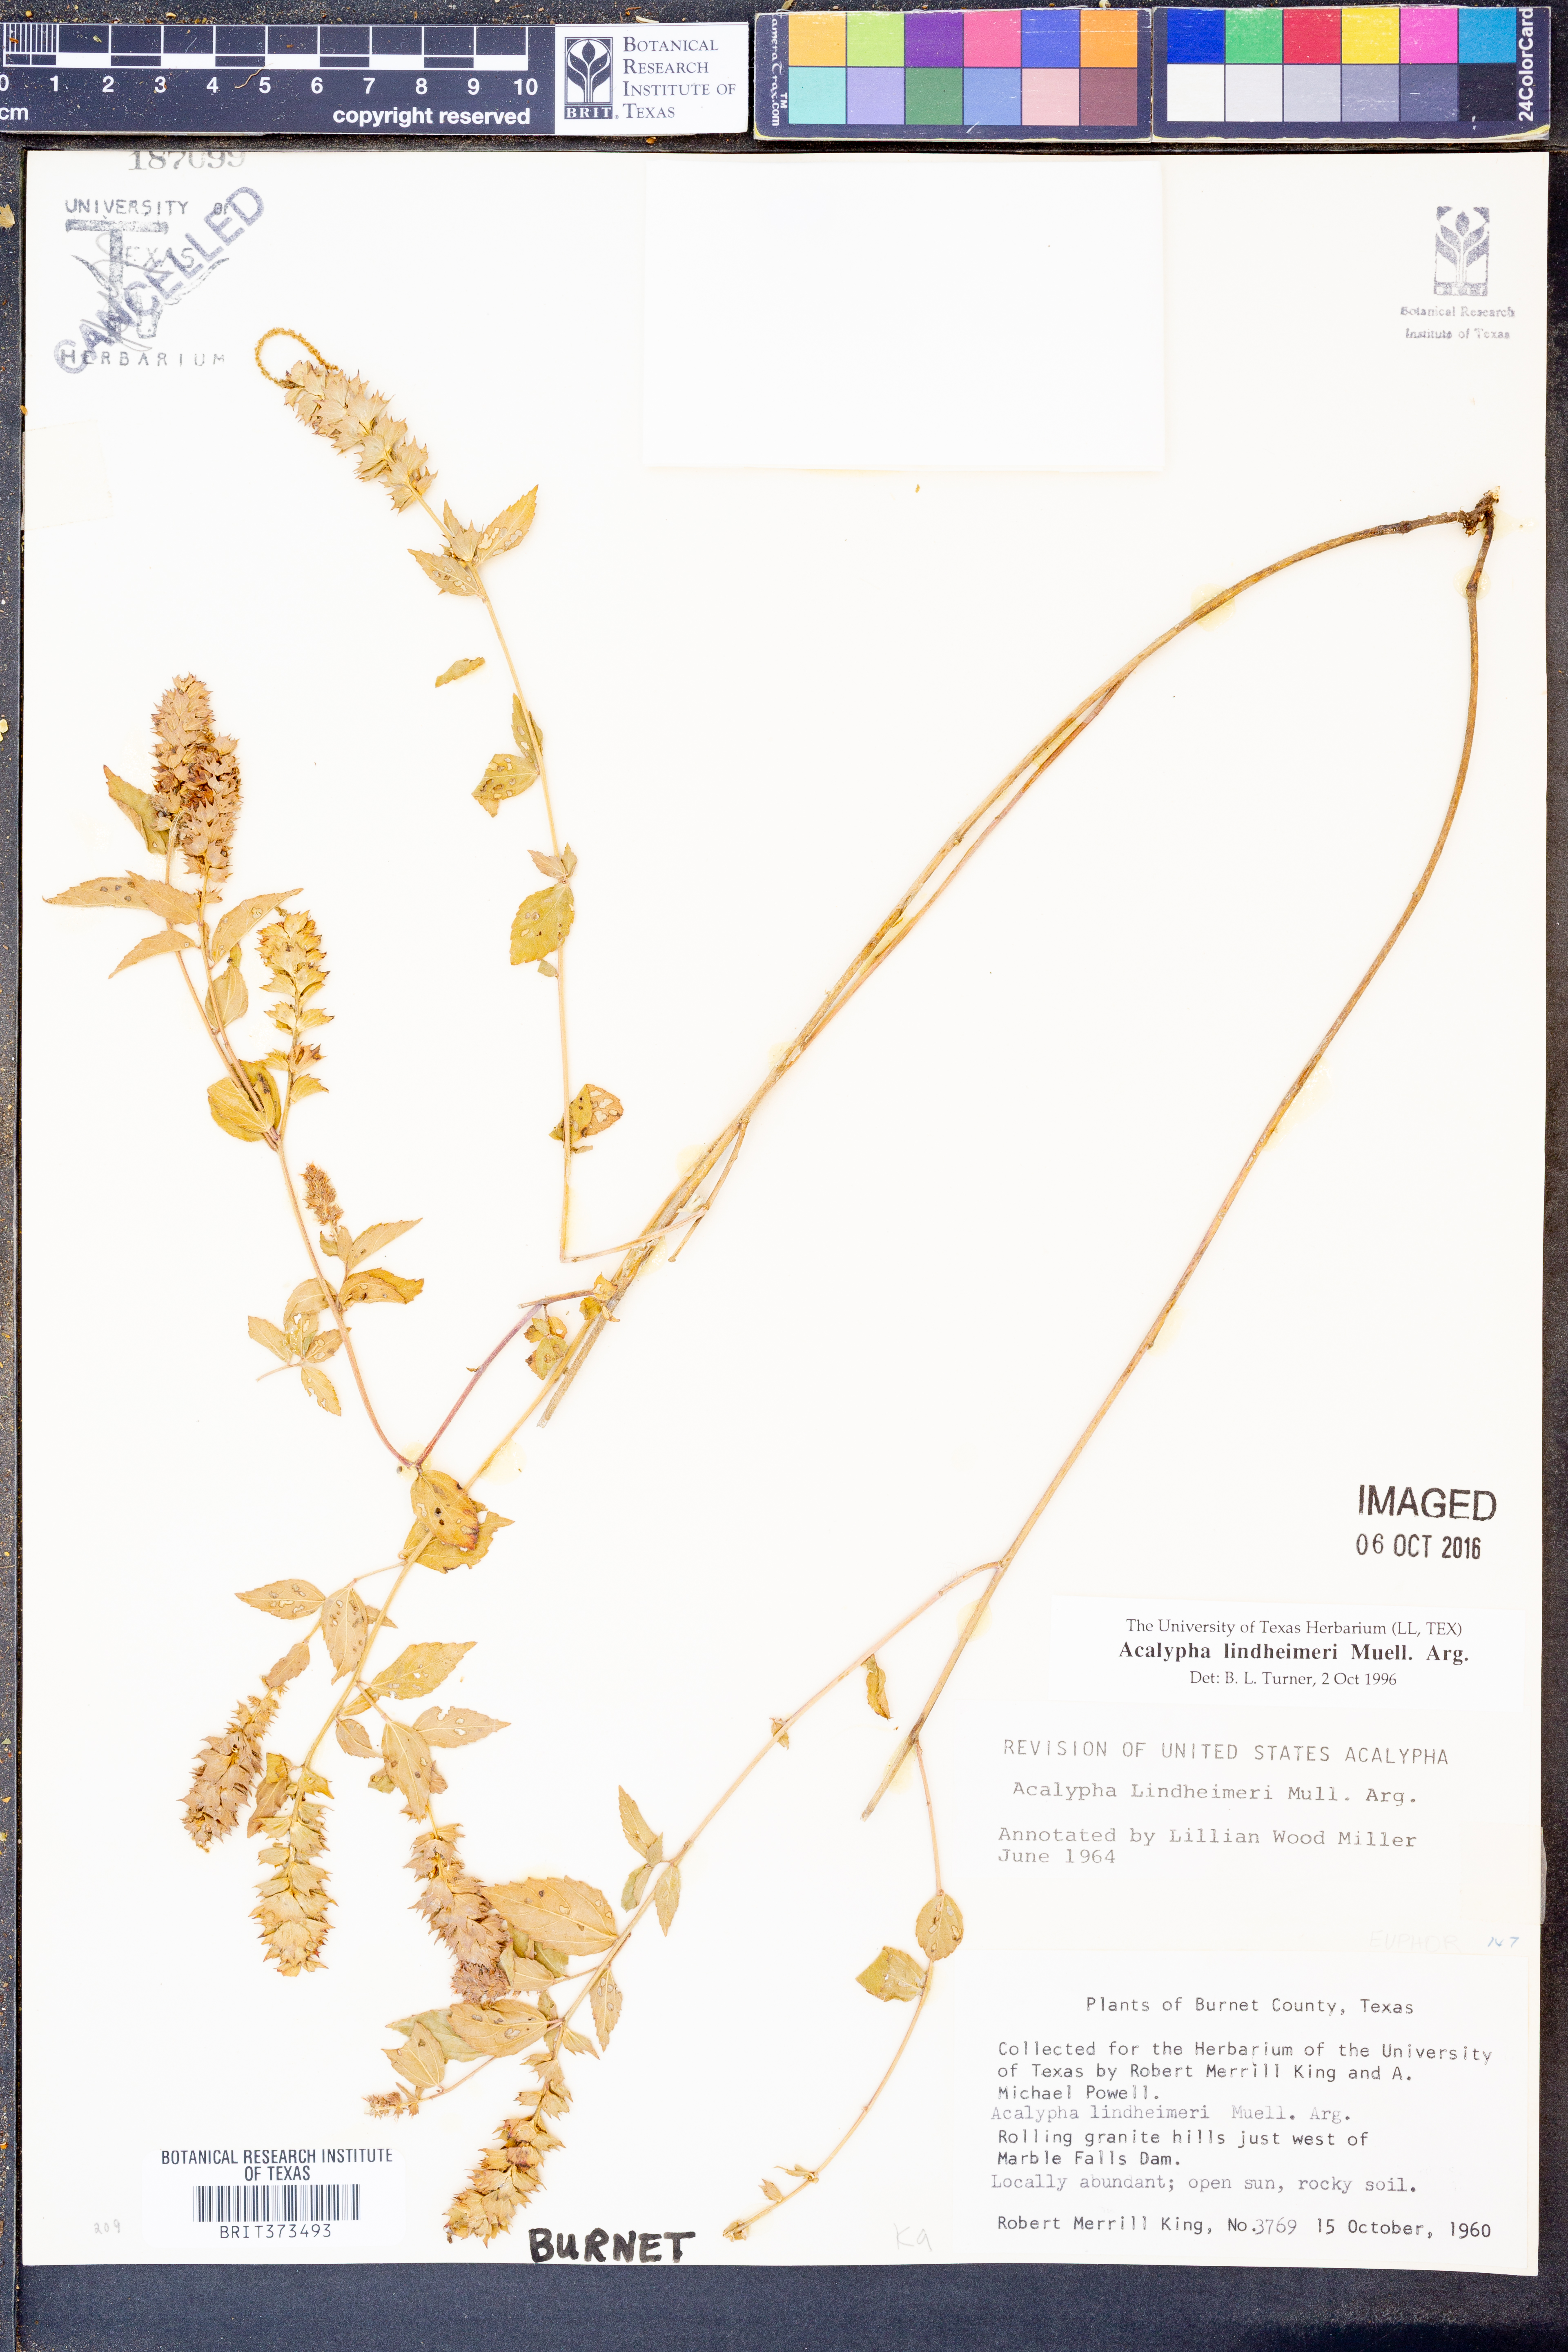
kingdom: Plantae
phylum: Tracheophyta
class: Magnoliopsida
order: Malpighiales
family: Euphorbiaceae
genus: Acalypha
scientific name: Acalypha phleoides
